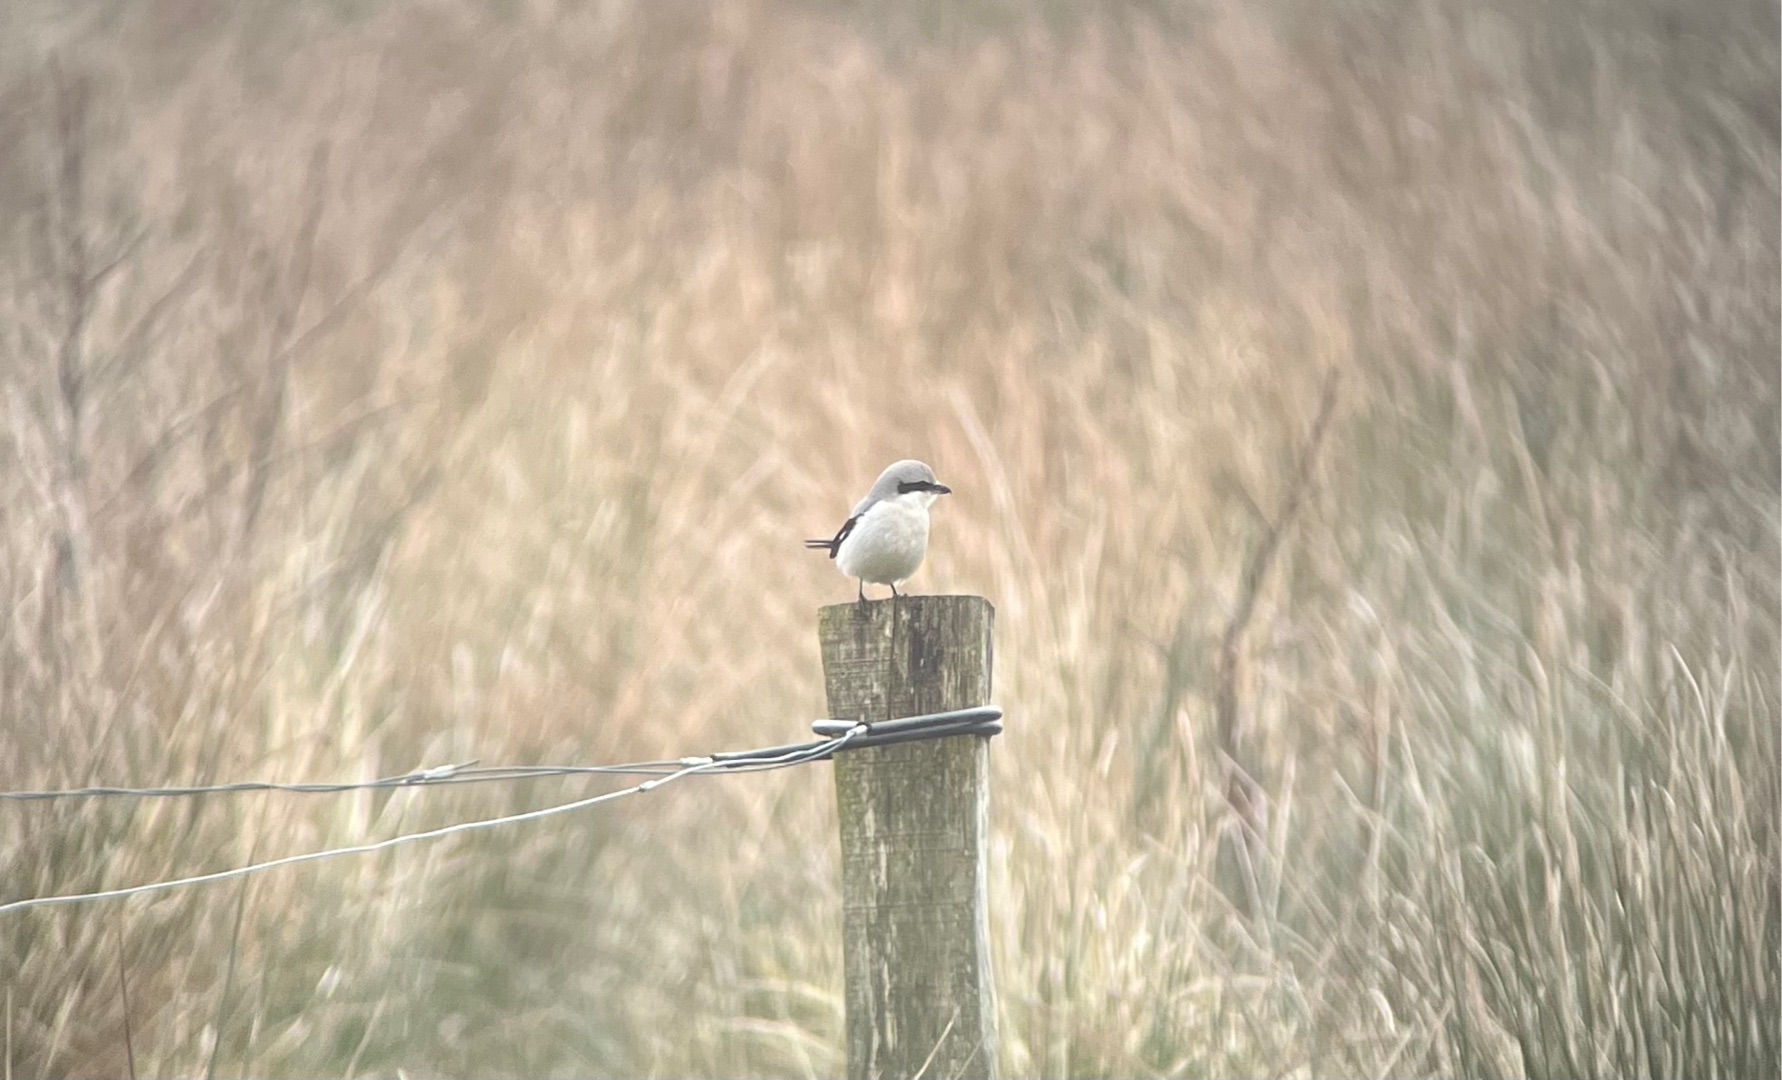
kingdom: Animalia
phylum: Chordata
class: Aves
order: Passeriformes
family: Laniidae
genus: Lanius
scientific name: Lanius excubitor
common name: Stor tornskade
